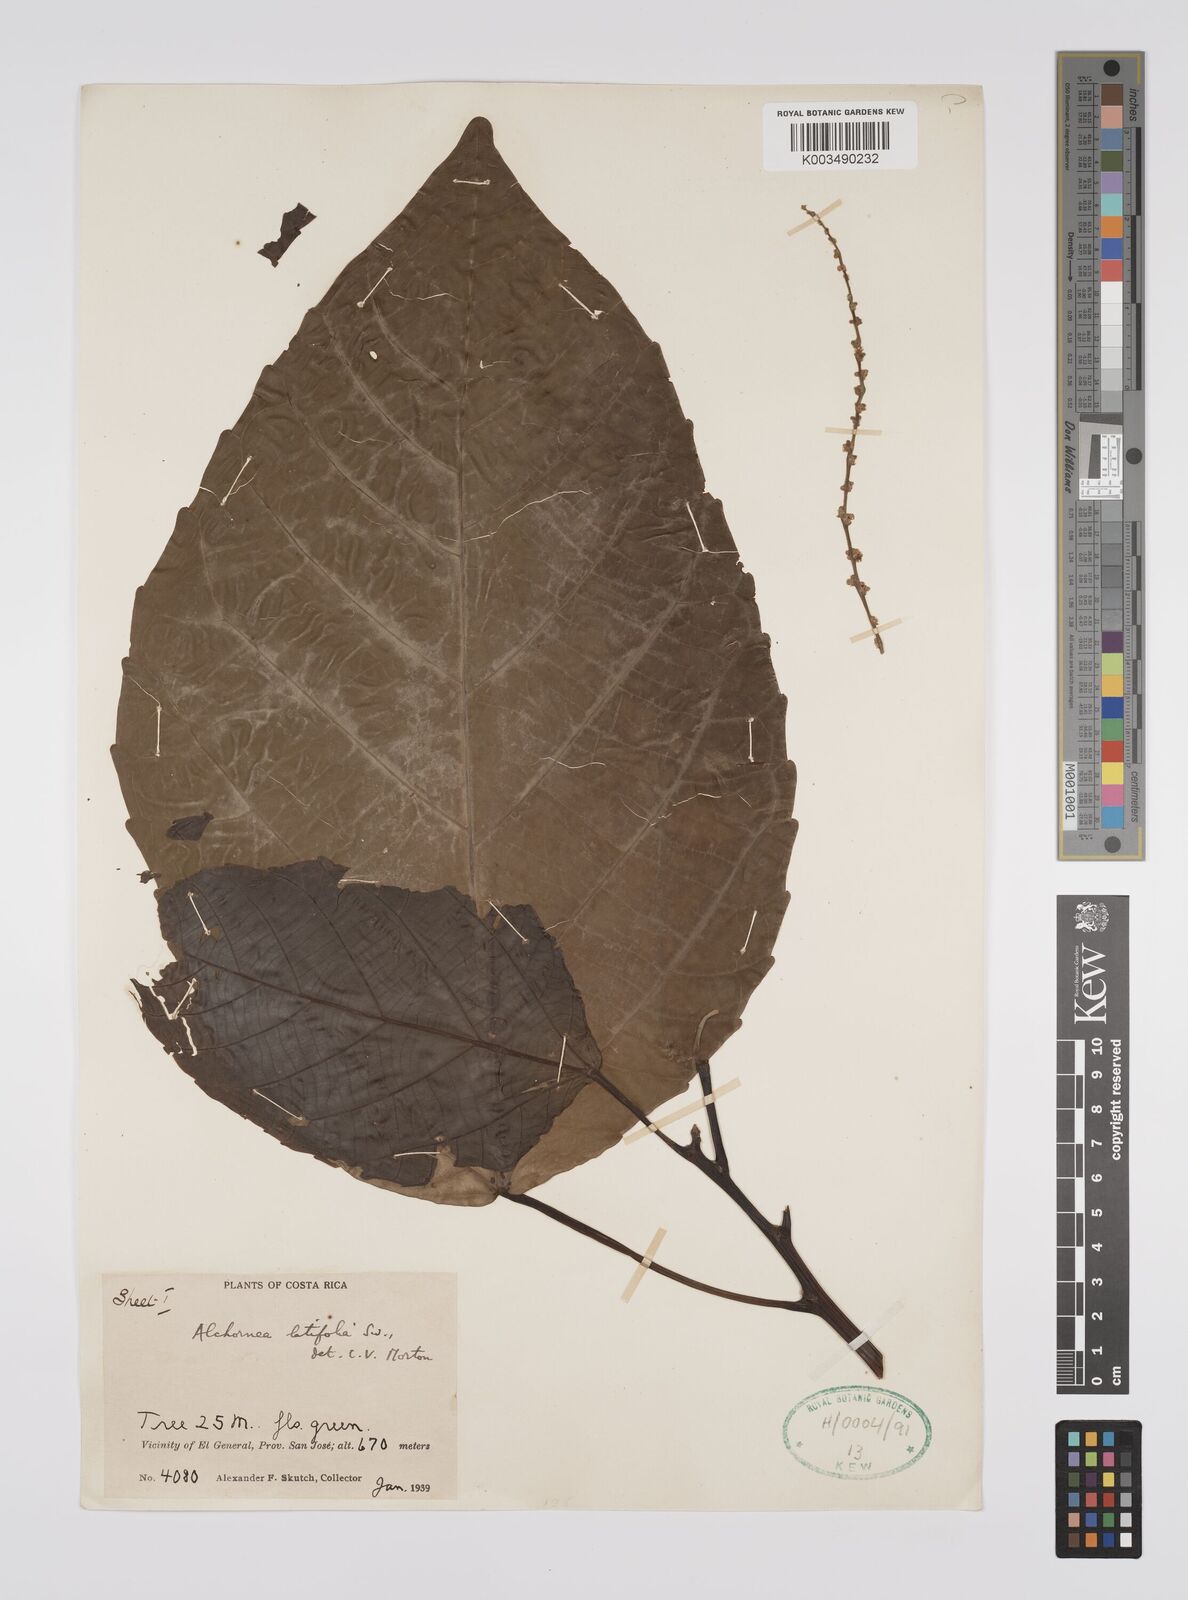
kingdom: Plantae
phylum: Tracheophyta
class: Magnoliopsida
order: Malpighiales
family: Euphorbiaceae
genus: Alchornea
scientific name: Alchornea latifolia
